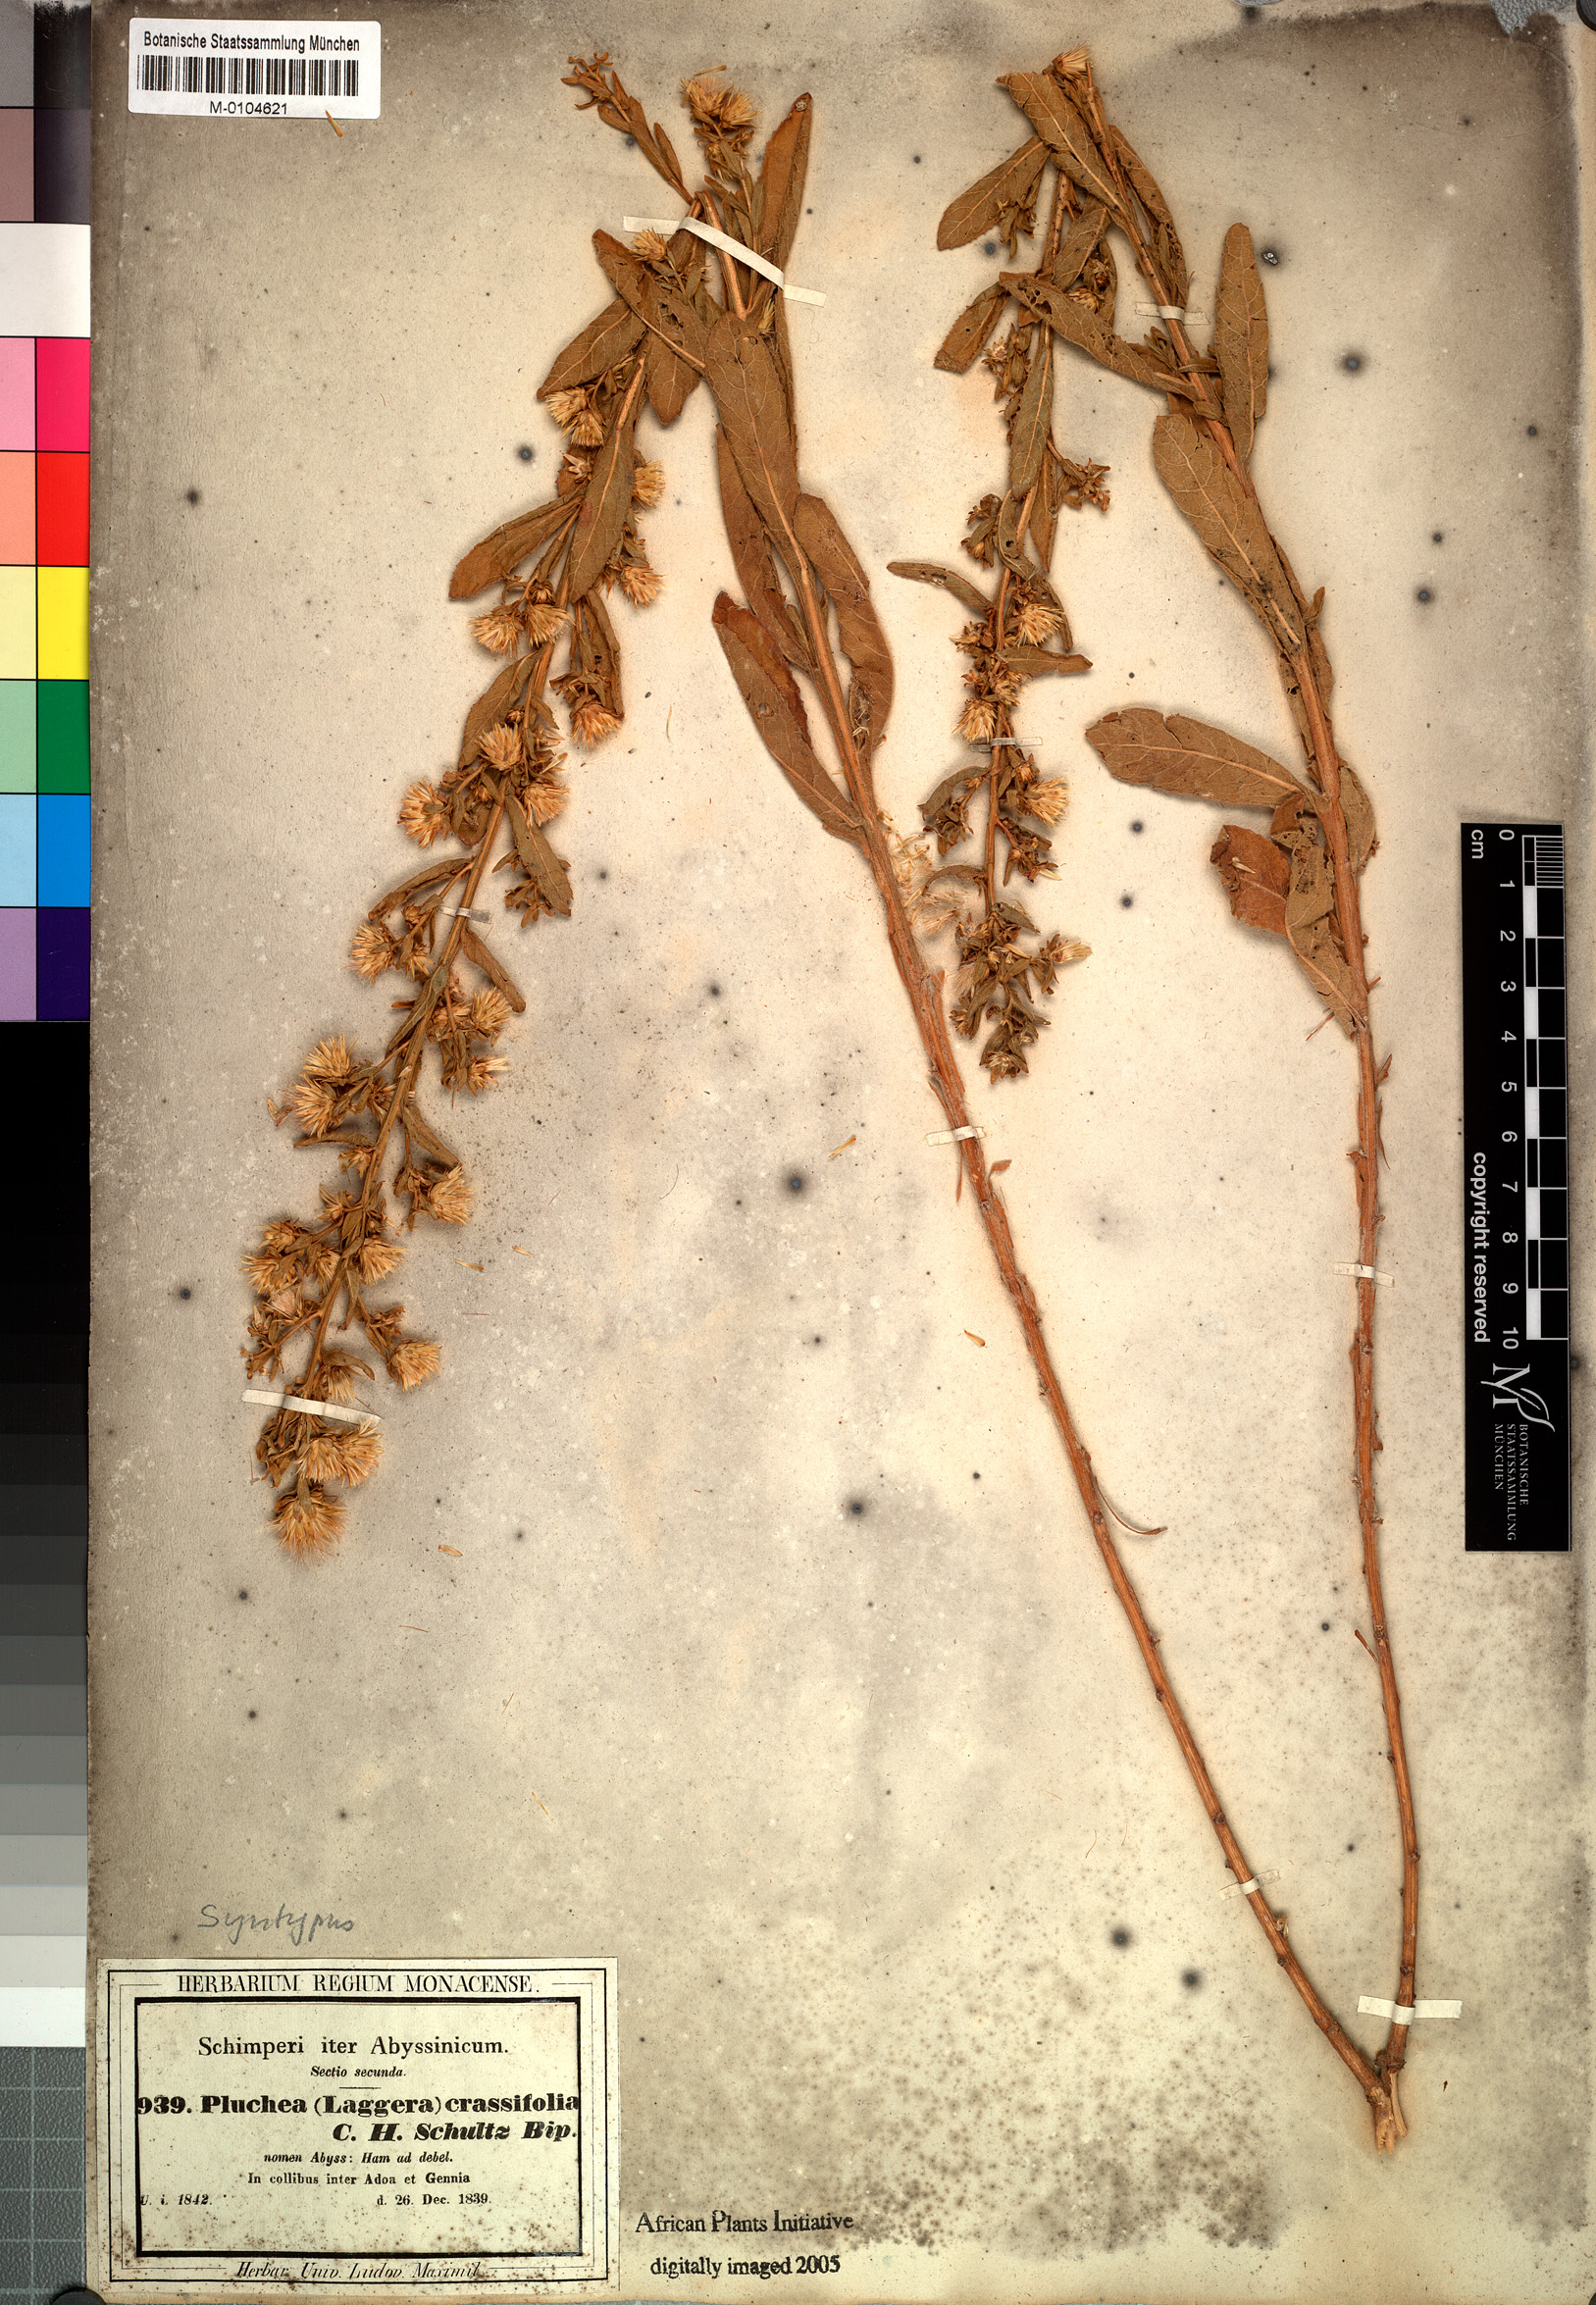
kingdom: Plantae
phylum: Tracheophyta
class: Magnoliopsida
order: Asterales
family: Asteraceae
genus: Laggera
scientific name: Laggera crassifolia
